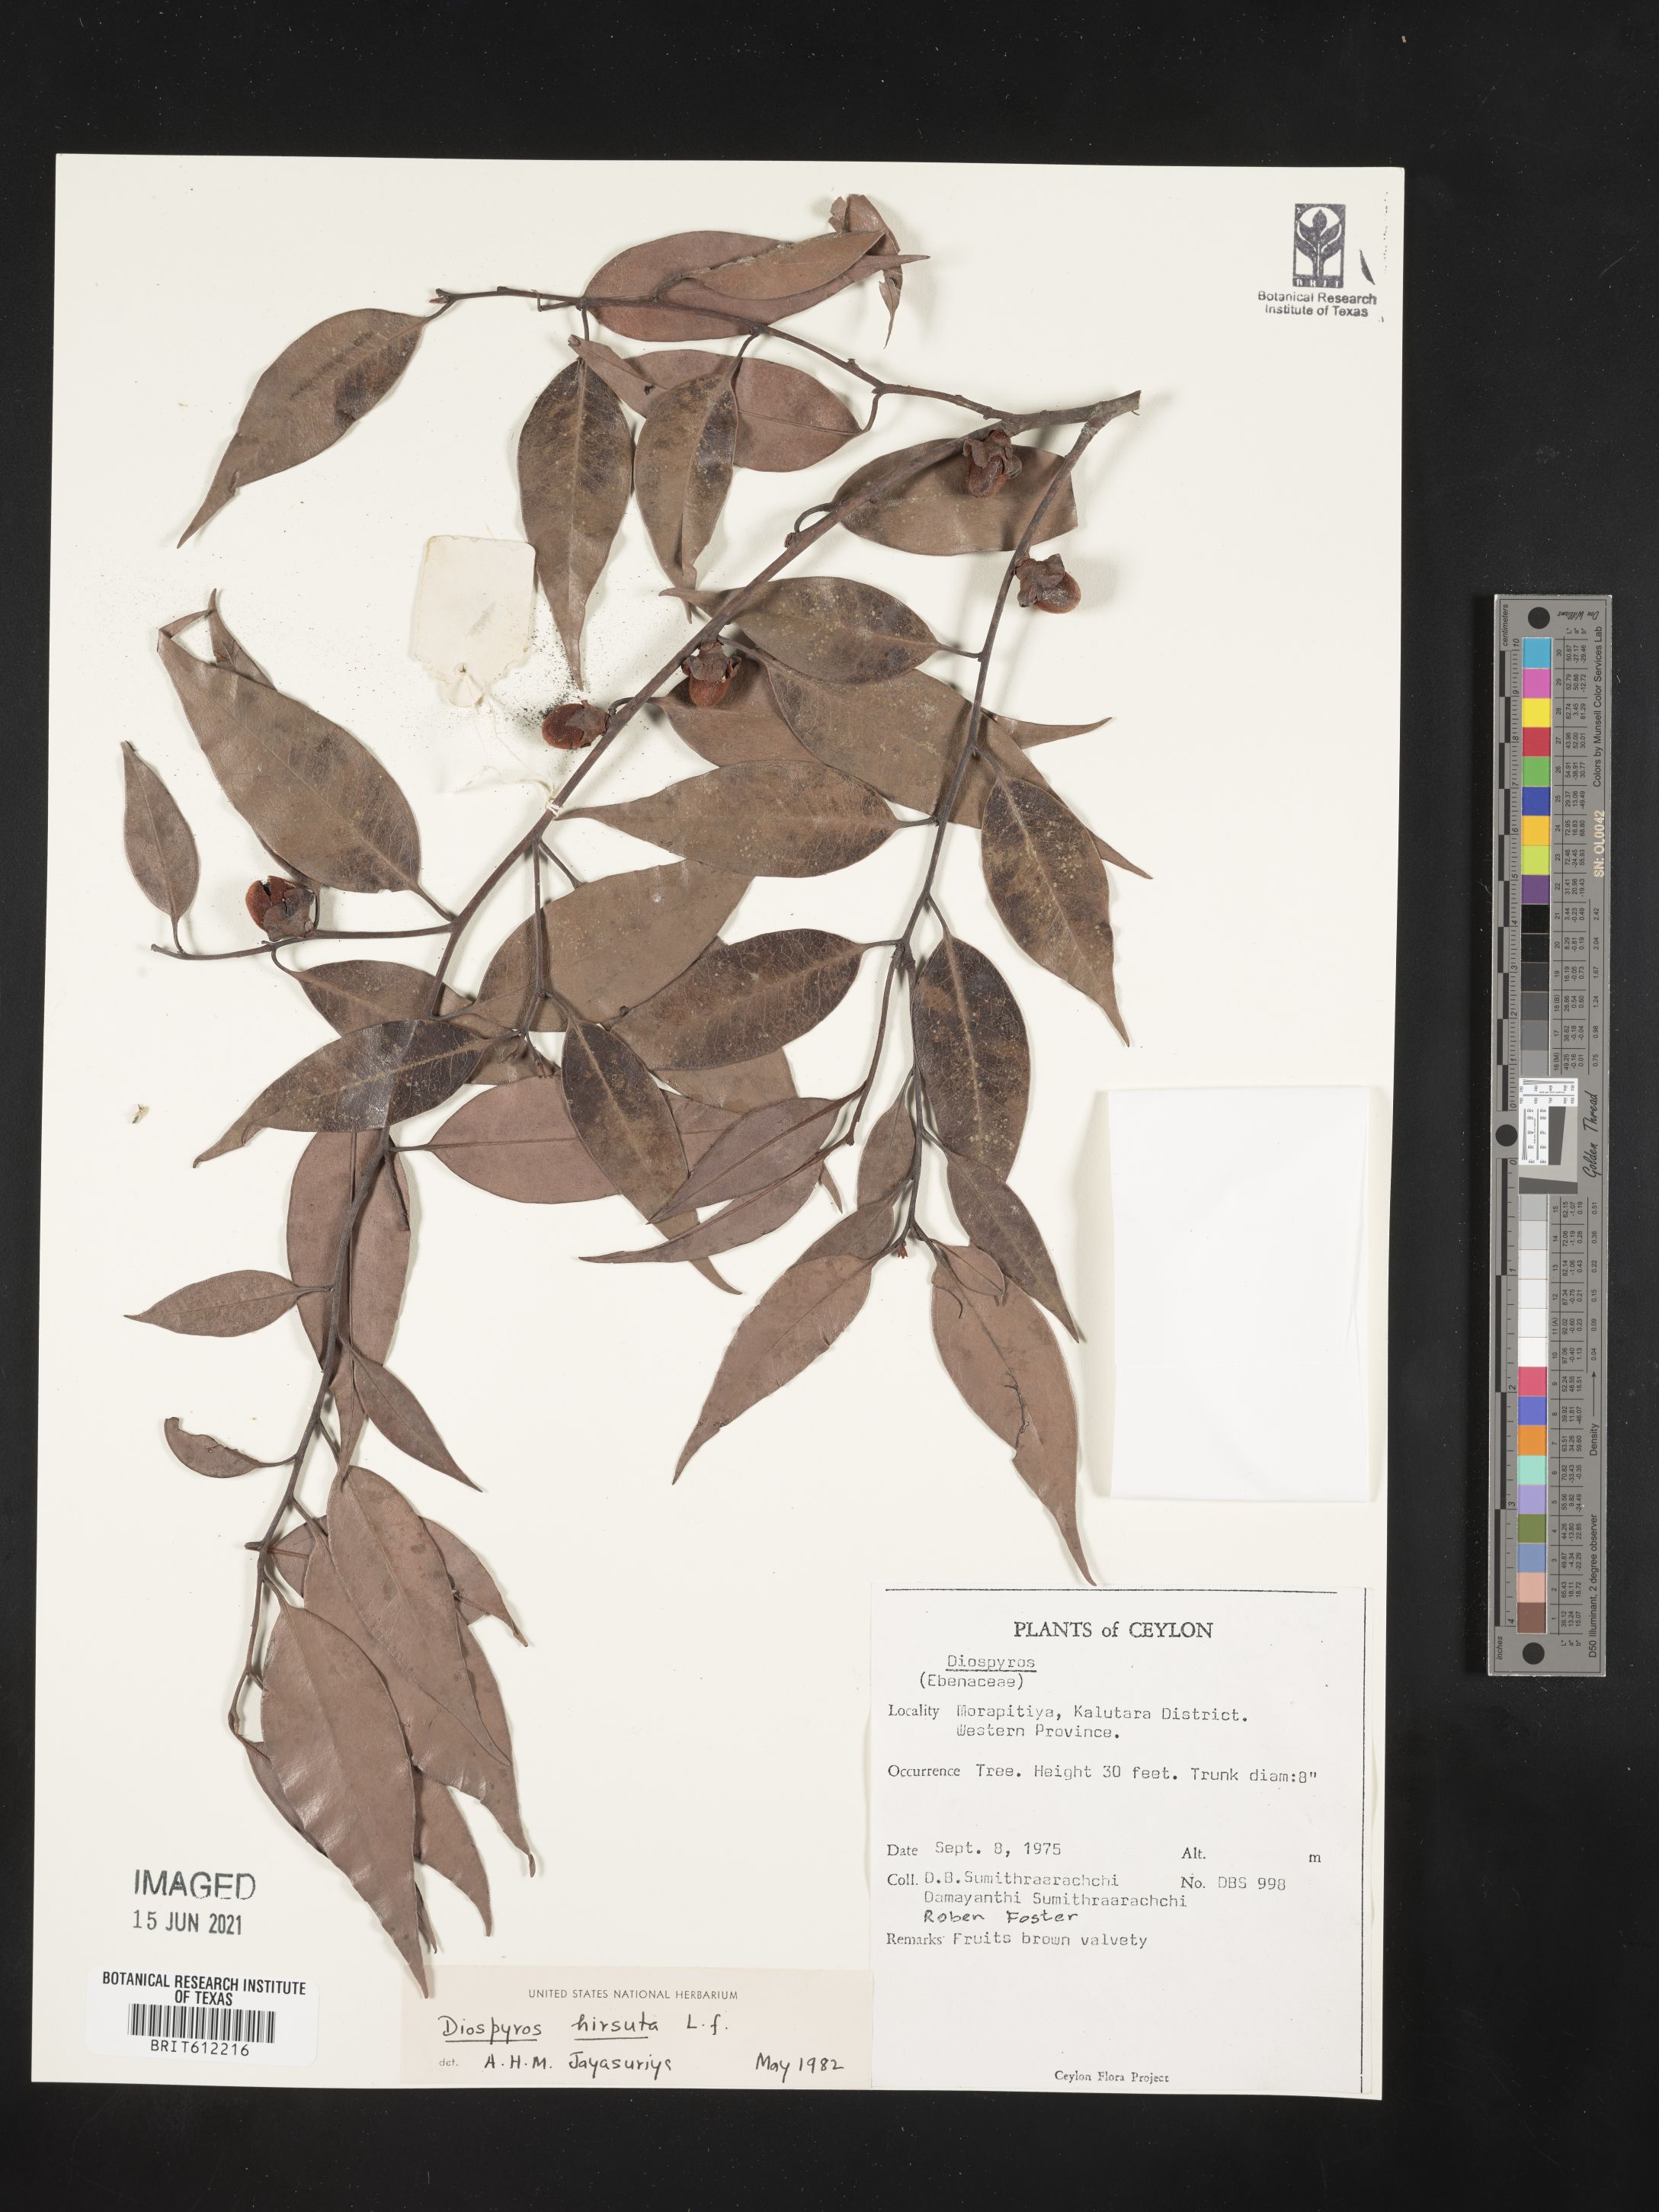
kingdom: Plantae
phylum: Tracheophyta
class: Magnoliopsida
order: Ericales
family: Ebenaceae
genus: Diospyros
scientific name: Diospyros
